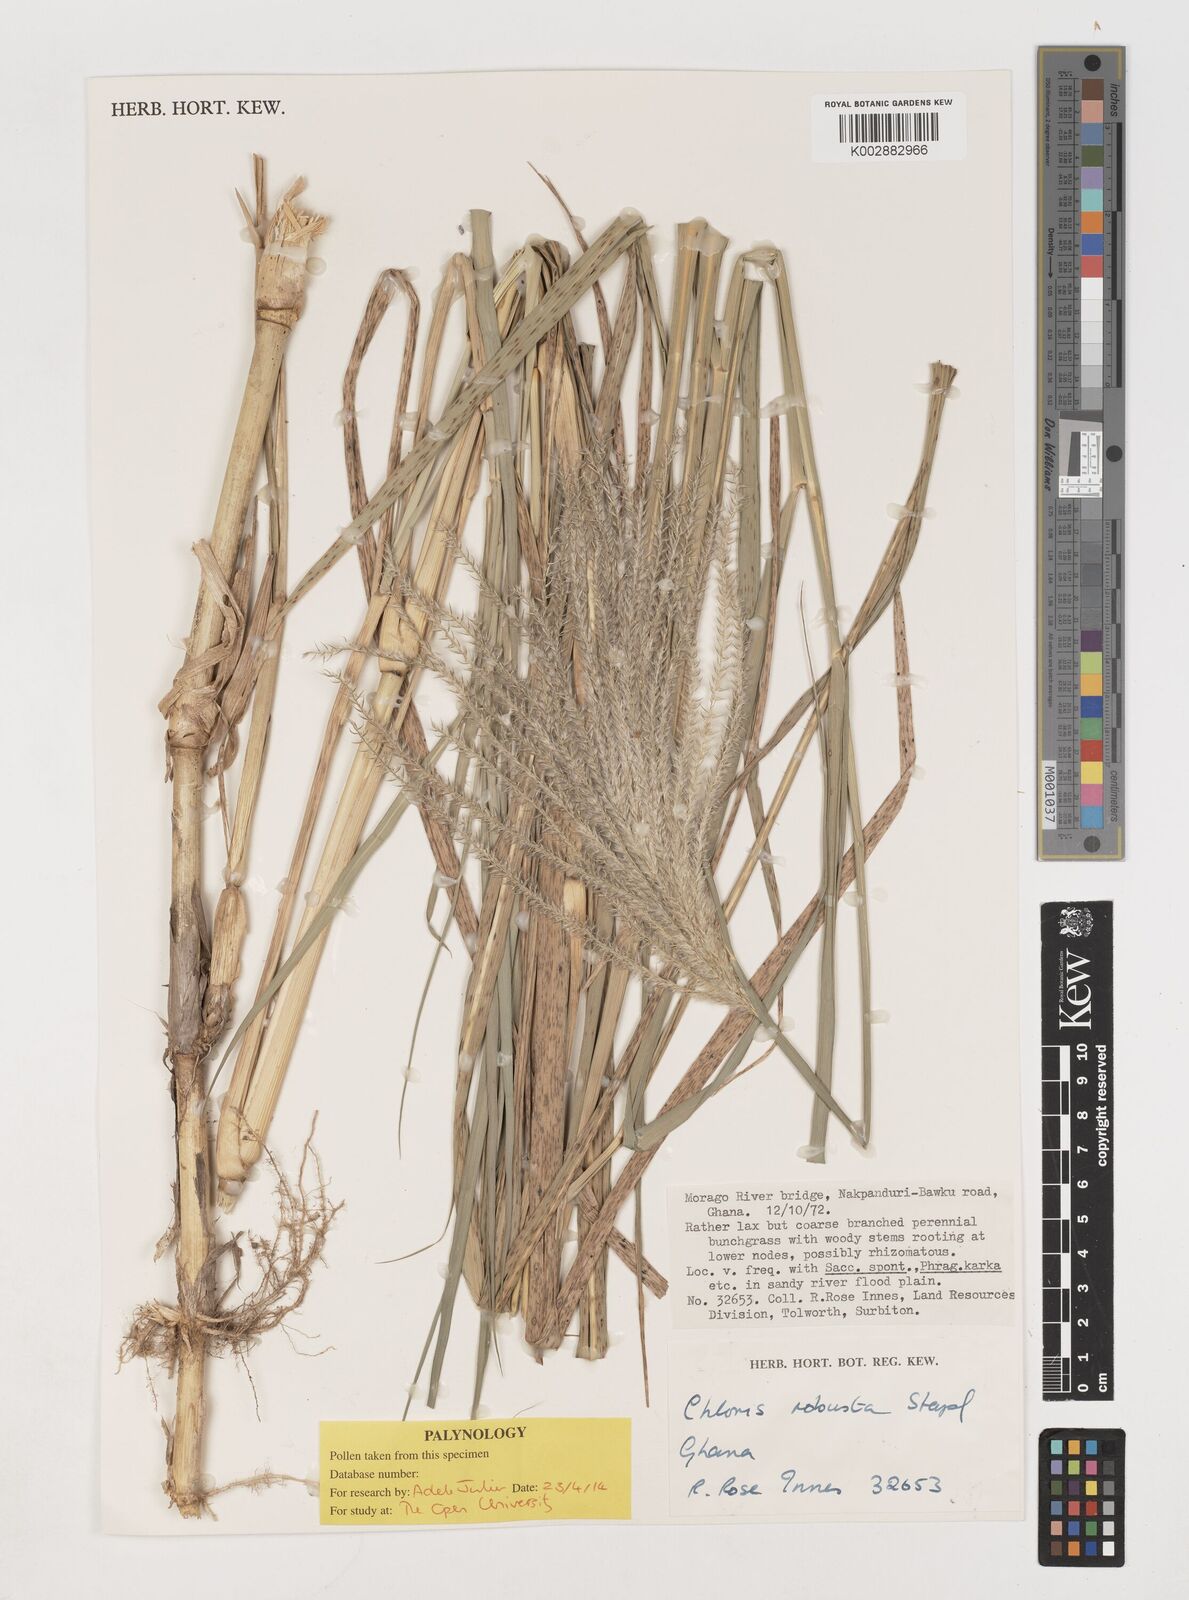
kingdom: Plantae
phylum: Tracheophyta
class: Liliopsida
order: Poales
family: Poaceae
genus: Chloris
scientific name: Chloris robusta
